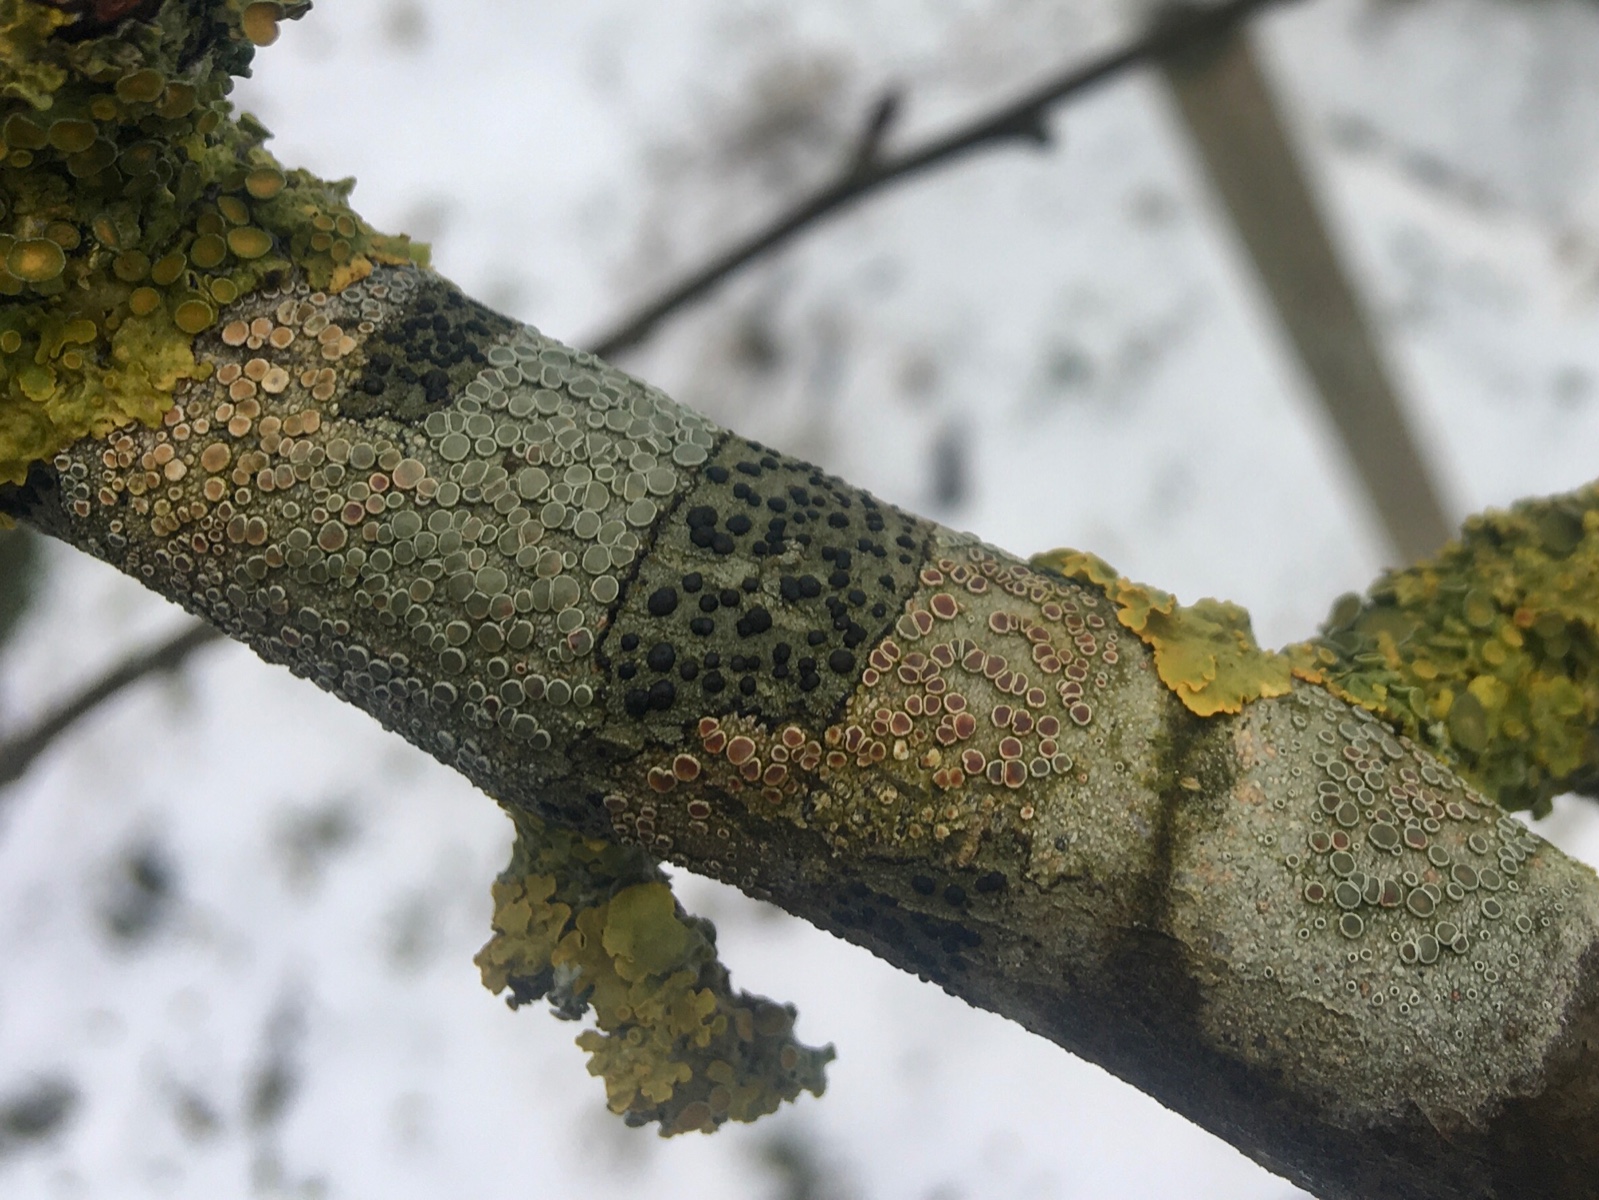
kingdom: Fungi
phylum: Ascomycota
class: Lecanoromycetes
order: Lecanorales
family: Lecanoraceae
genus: Lecidella
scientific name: Lecidella elaeochroma
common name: grågrøn skivelav
